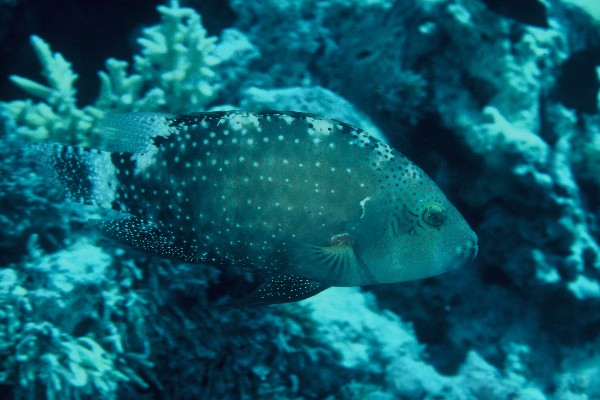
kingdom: Animalia
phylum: Chordata
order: Perciformes
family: Labridae
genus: Cheilinus
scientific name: Cheilinus chlorourus
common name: Floral wrasse
